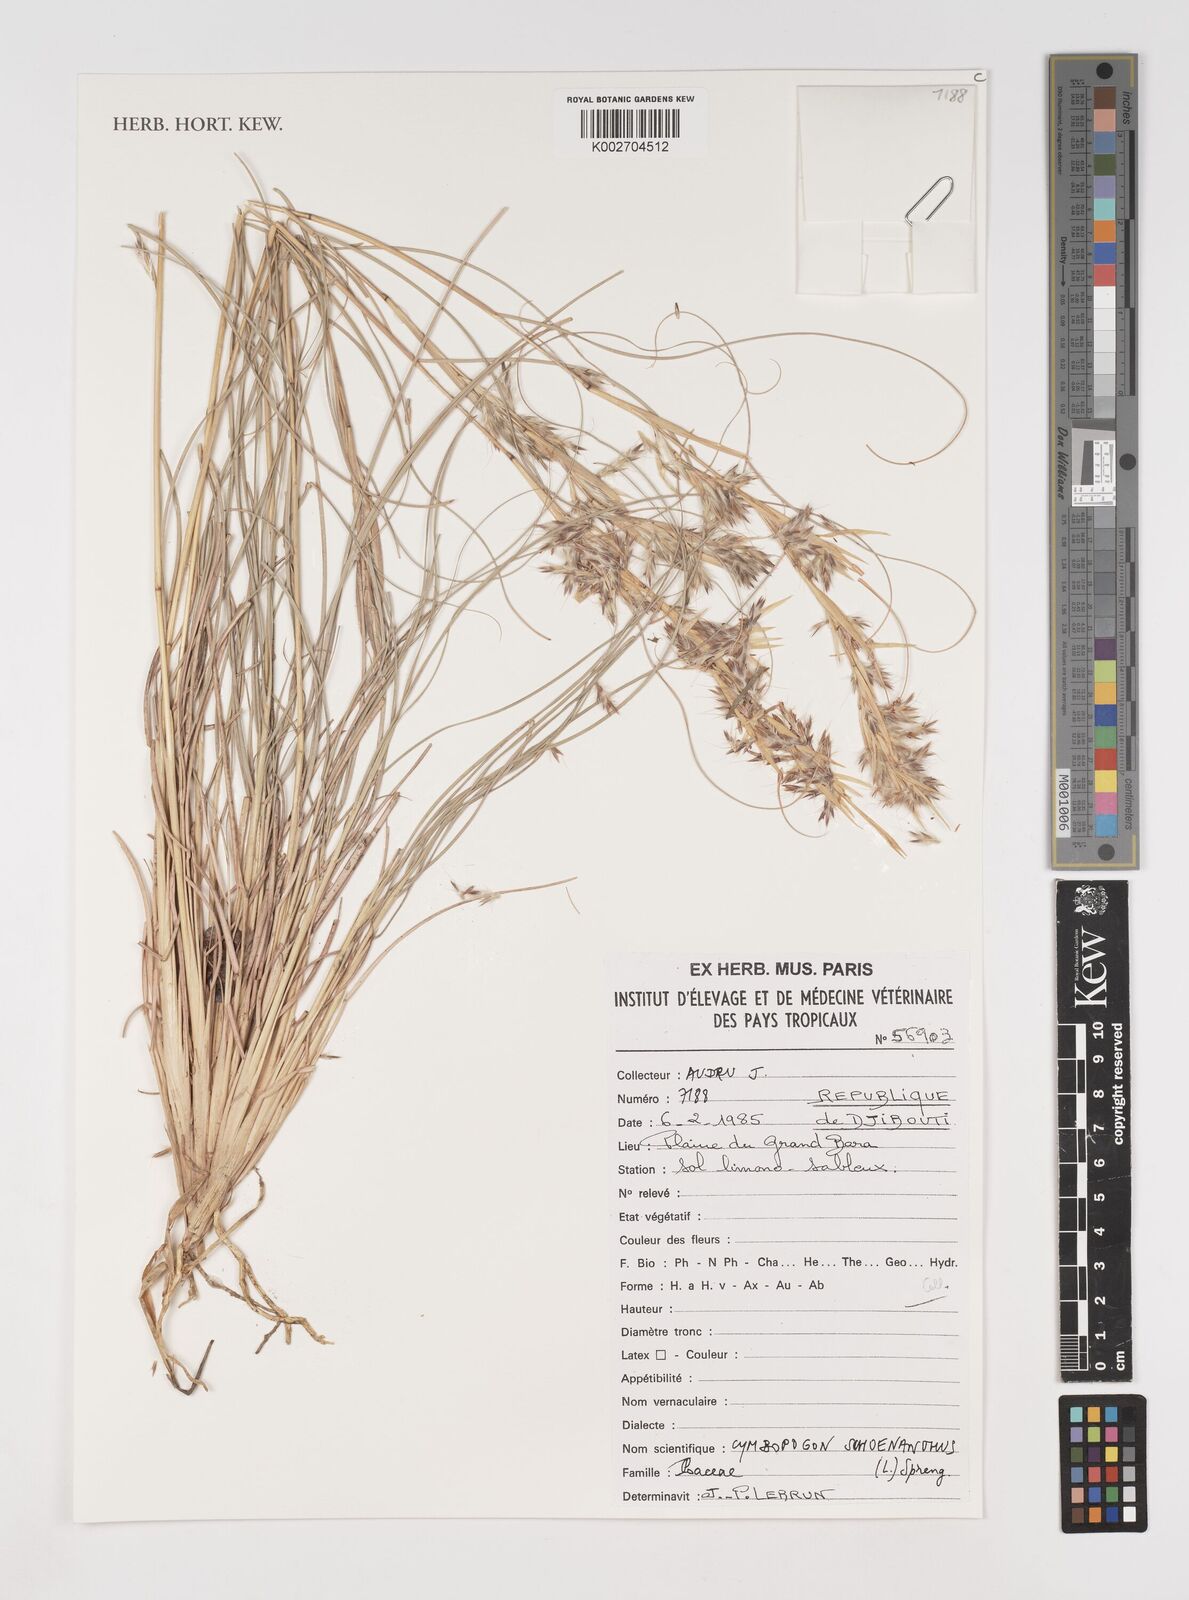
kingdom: Plantae
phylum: Tracheophyta
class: Liliopsida
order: Poales
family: Poaceae
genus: Cymbopogon
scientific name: Cymbopogon schoenanthus
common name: Geranium grass
